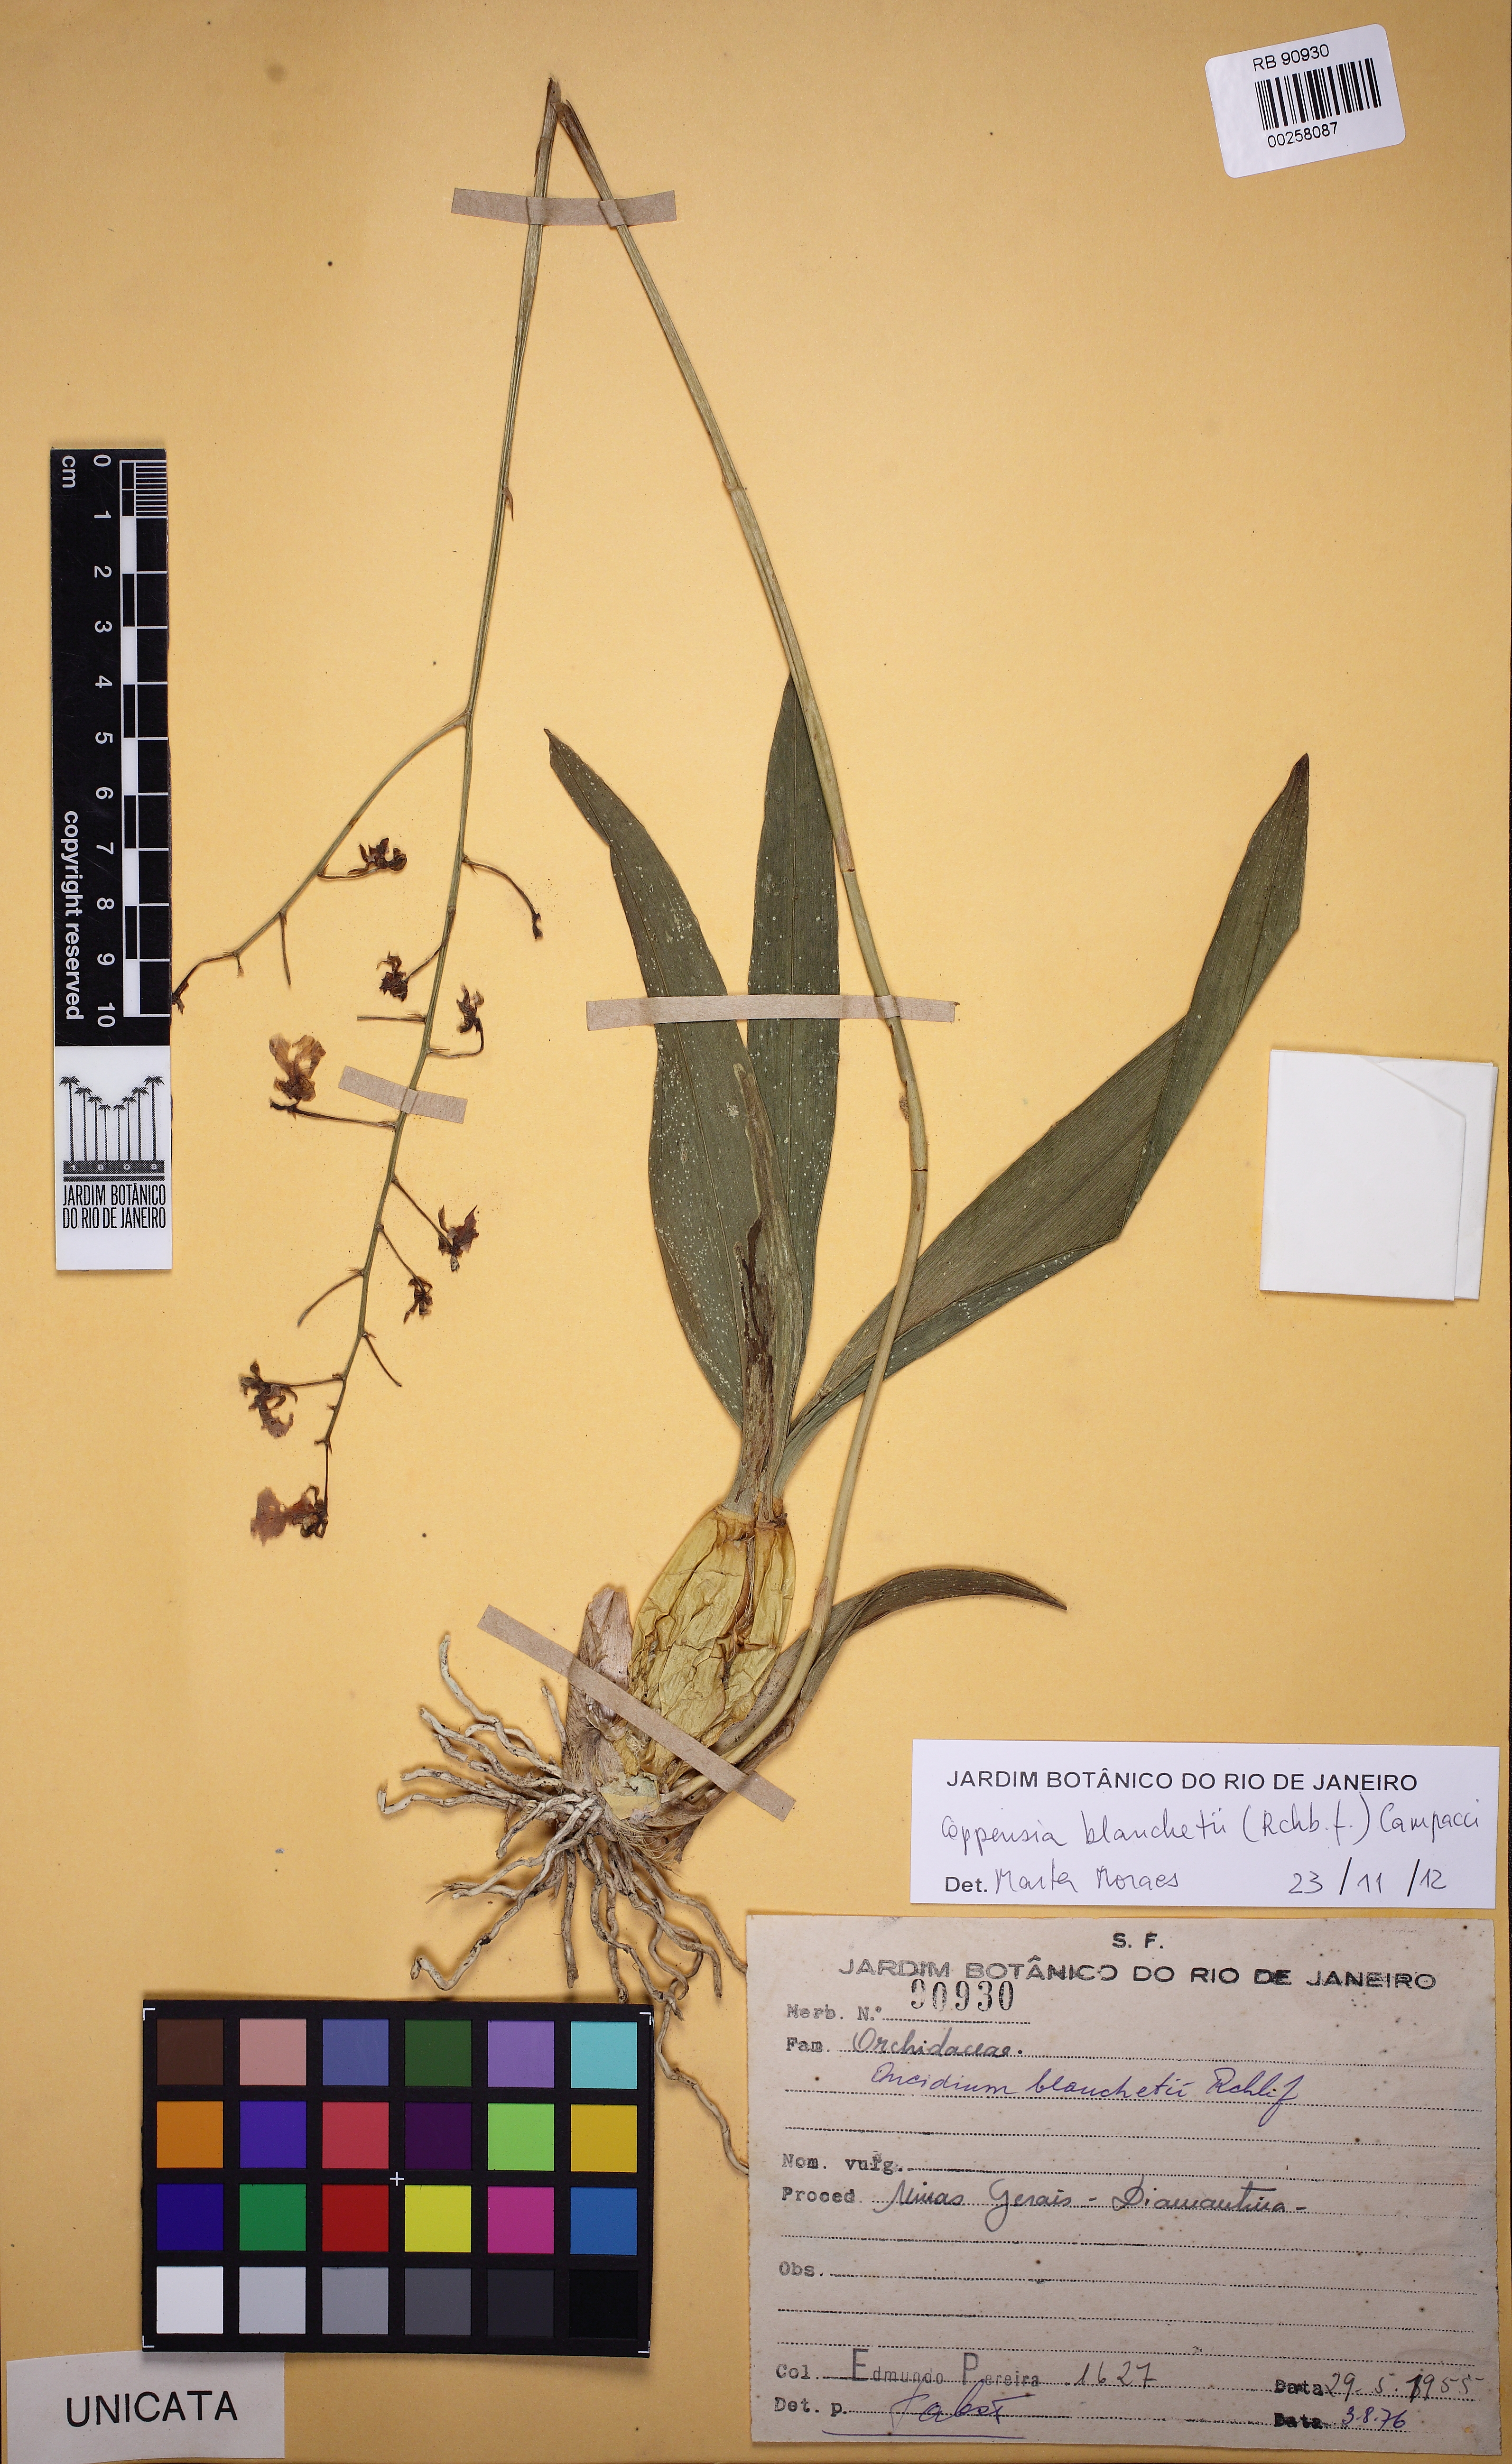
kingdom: Plantae
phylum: Tracheophyta
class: Liliopsida
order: Asparagales
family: Orchidaceae
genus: Gomesa
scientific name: Gomesa ramosa
